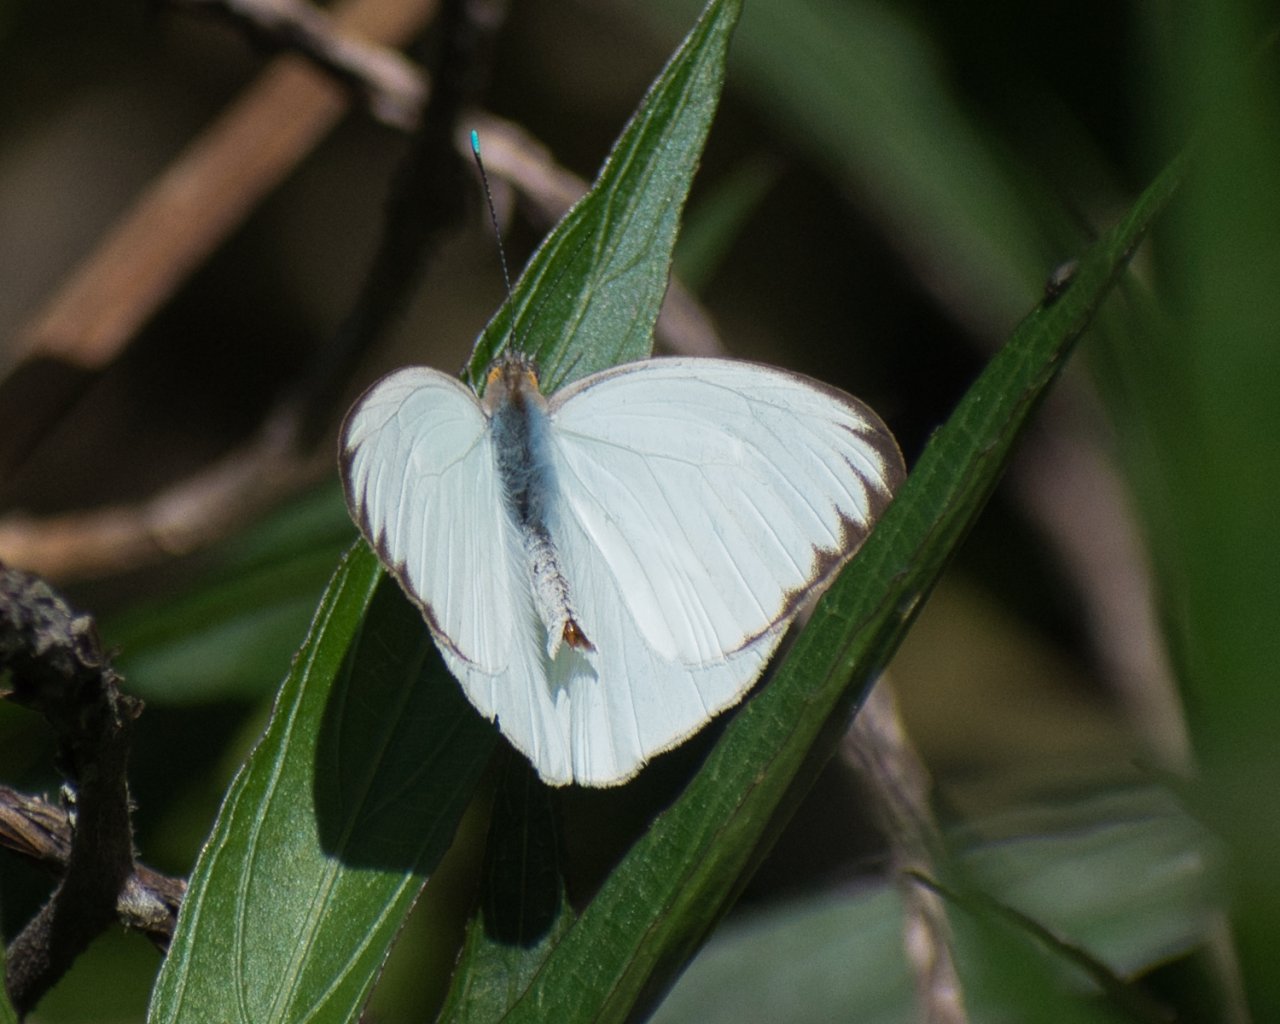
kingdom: Animalia
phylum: Arthropoda
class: Insecta
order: Lepidoptera
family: Pieridae
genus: Ascia
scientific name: Ascia monuste
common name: Great Southern White
